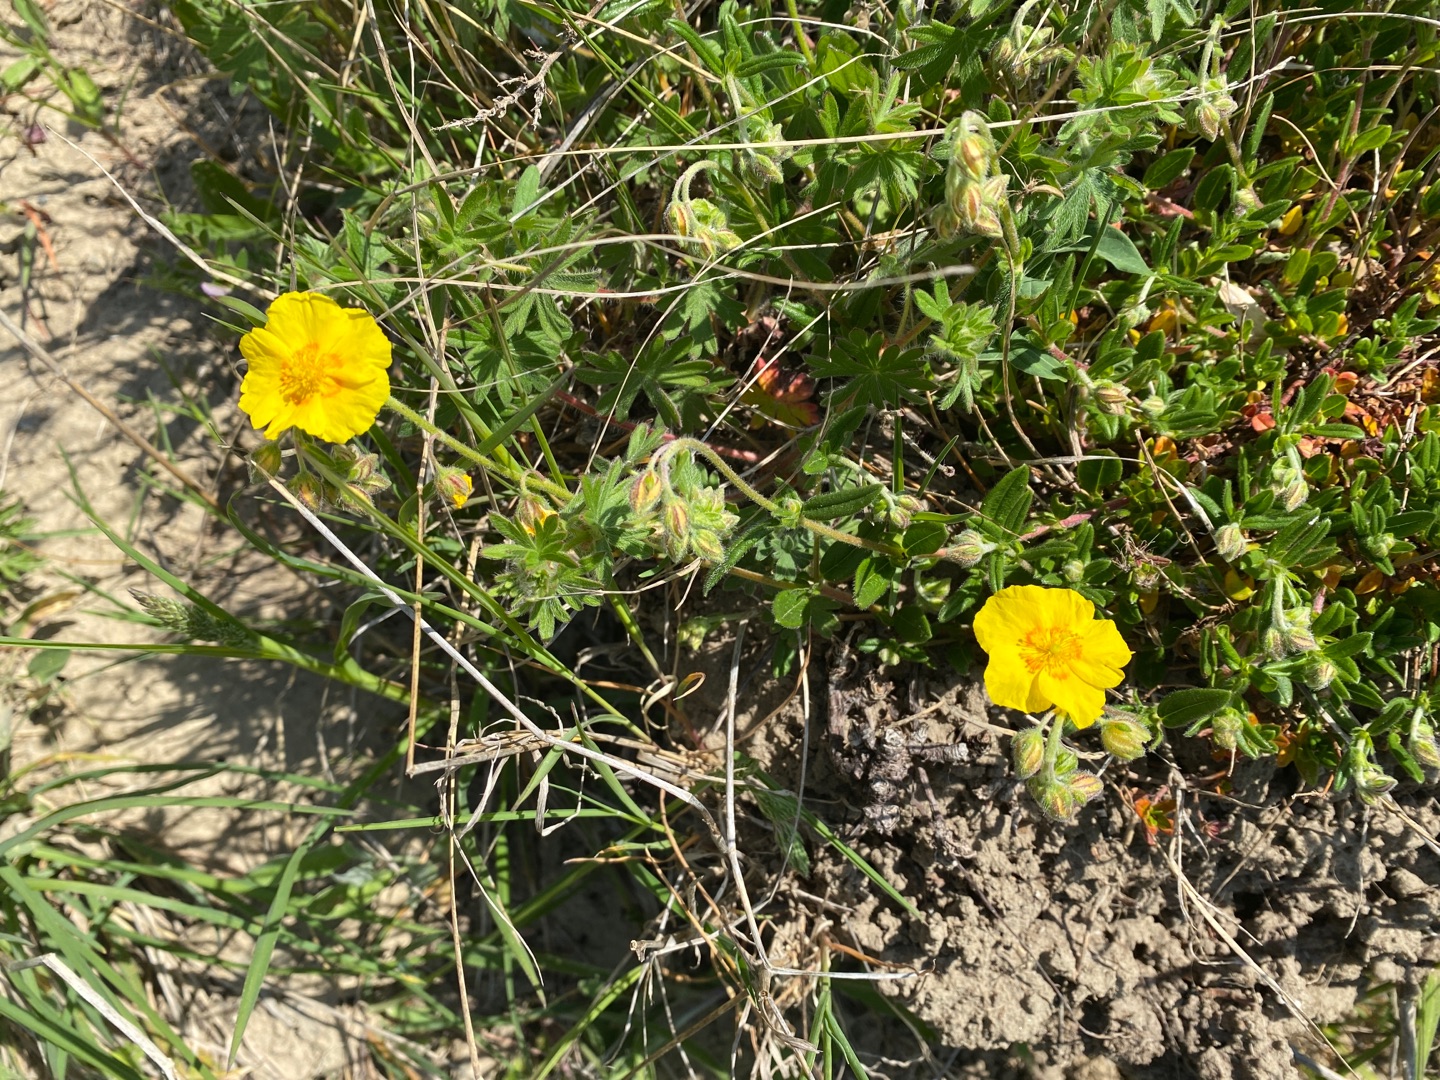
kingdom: Plantae
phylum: Tracheophyta
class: Magnoliopsida
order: Malvales
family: Cistaceae
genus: Helianthemum
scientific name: Helianthemum nummularium
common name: Bakke-soløje
